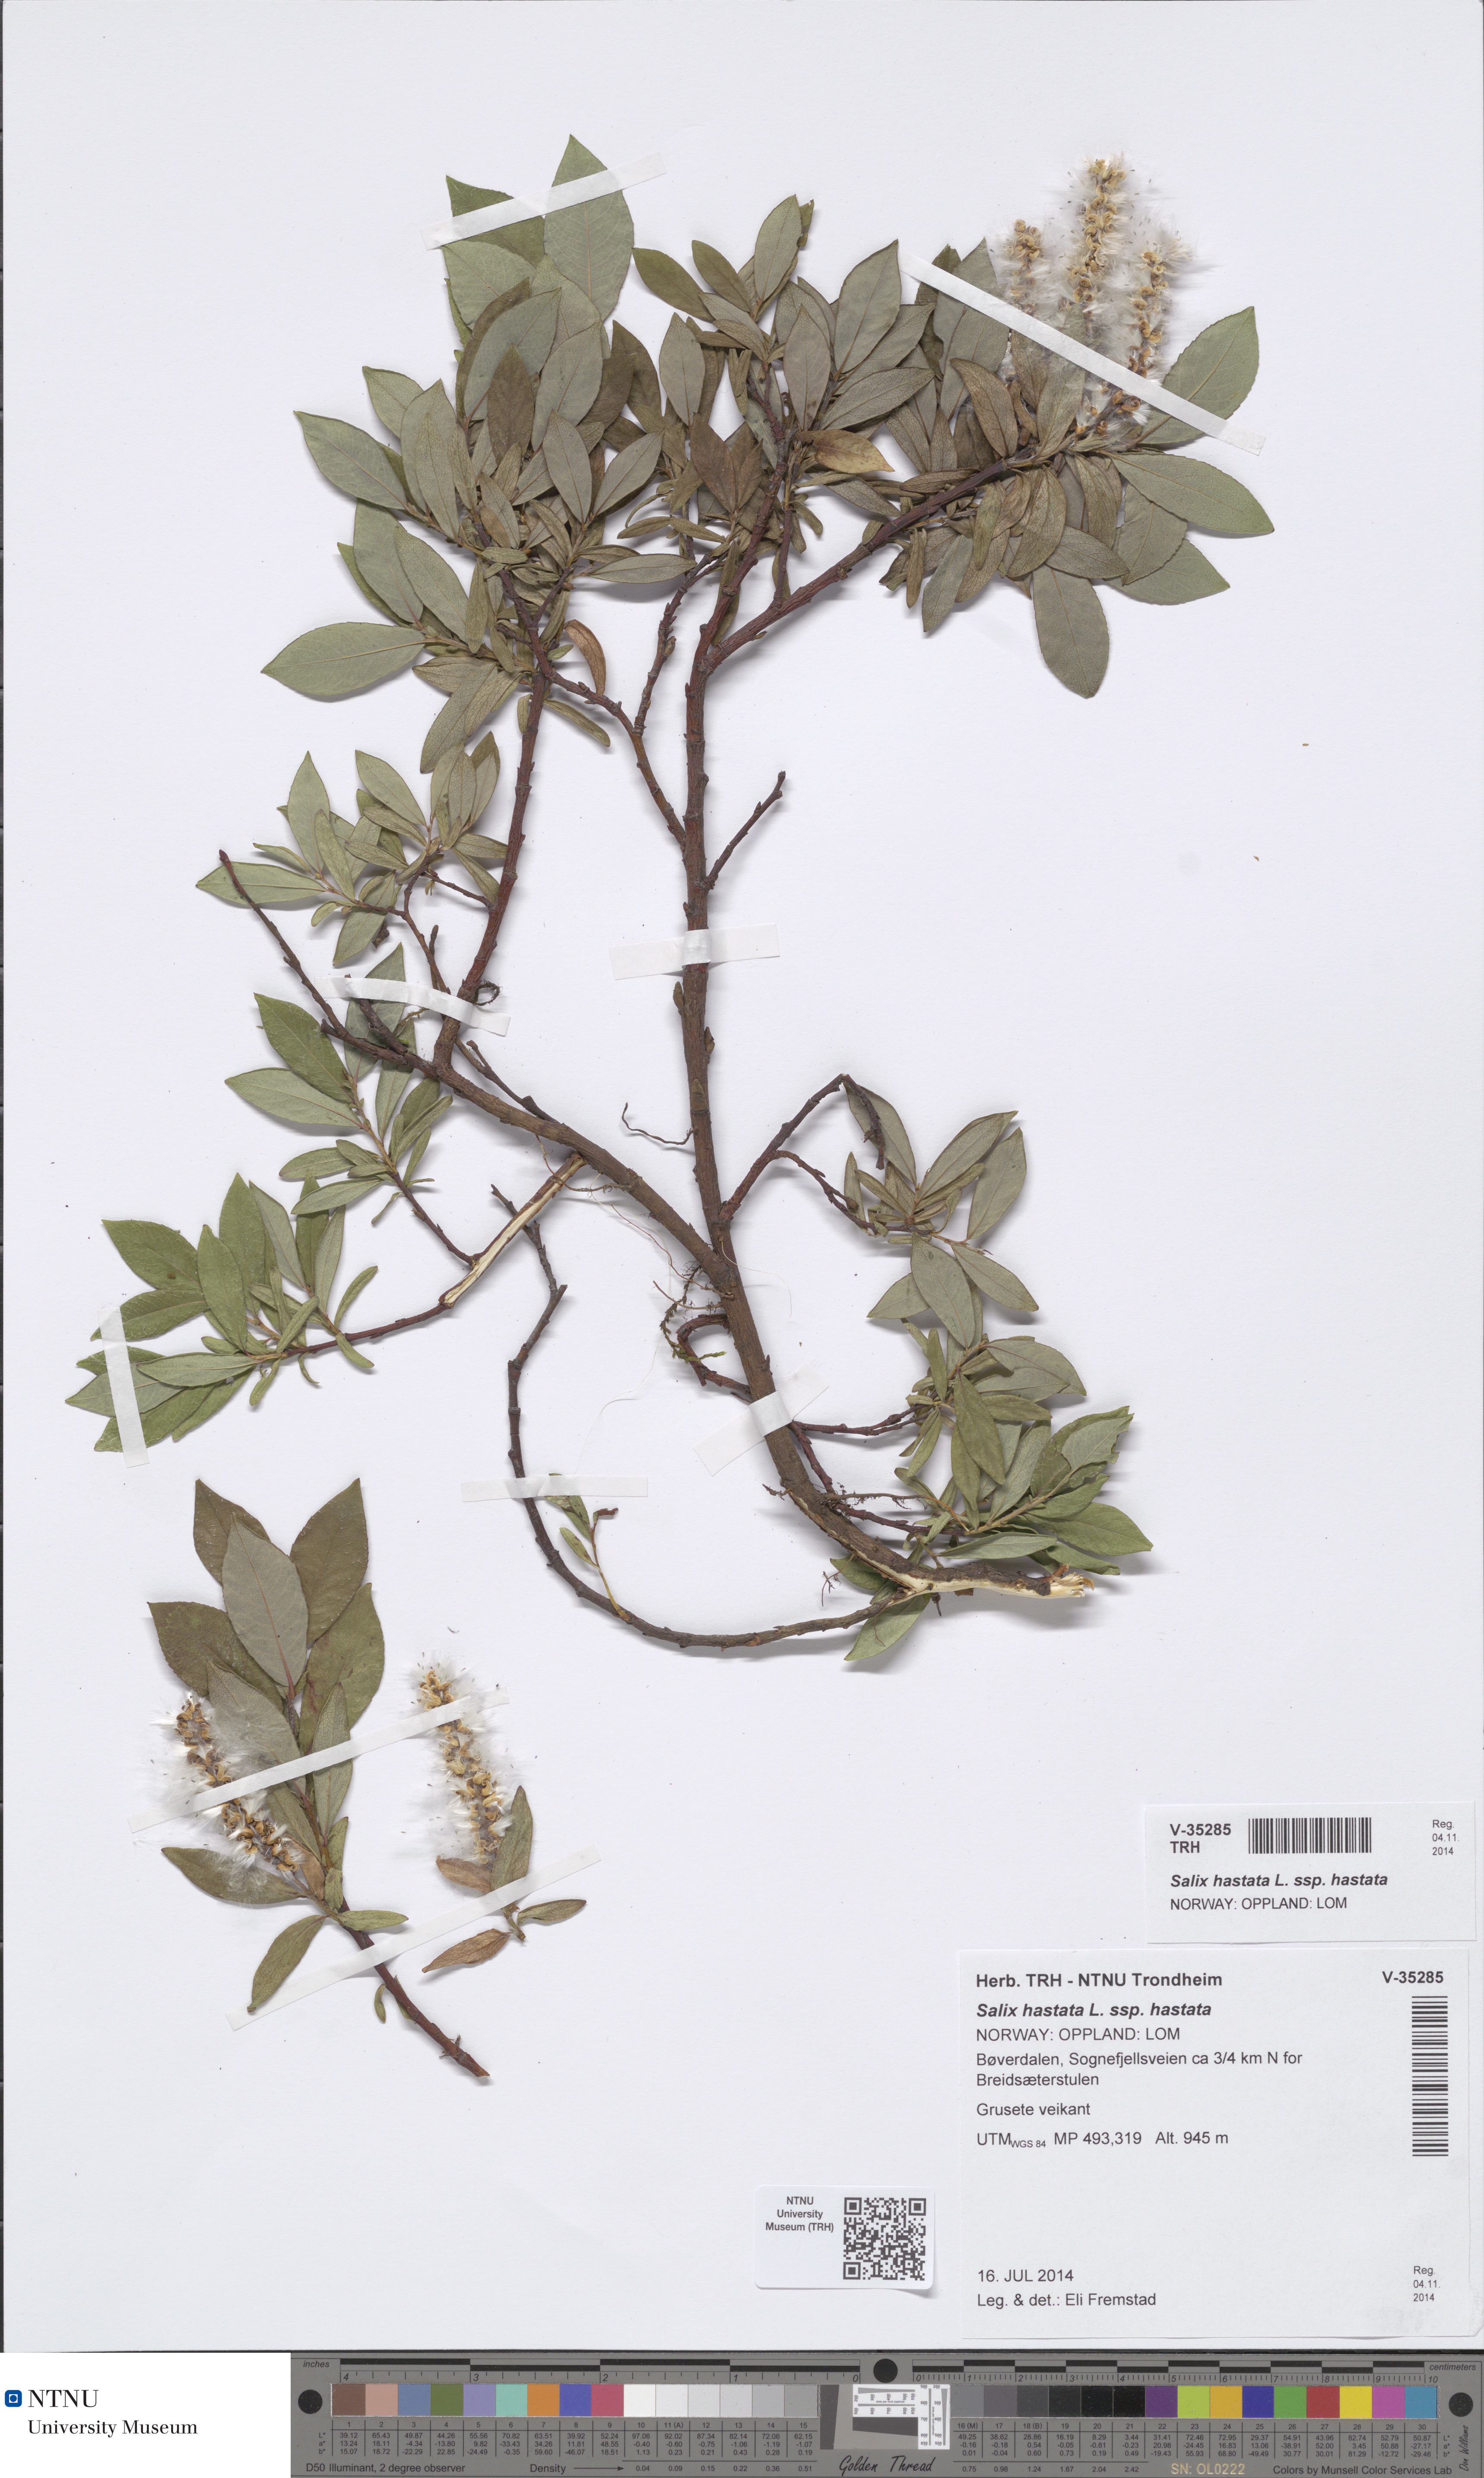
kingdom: Plantae
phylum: Tracheophyta
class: Magnoliopsida
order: Malpighiales
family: Salicaceae
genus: Salix
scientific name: Salix hastata
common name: Halberd willow
